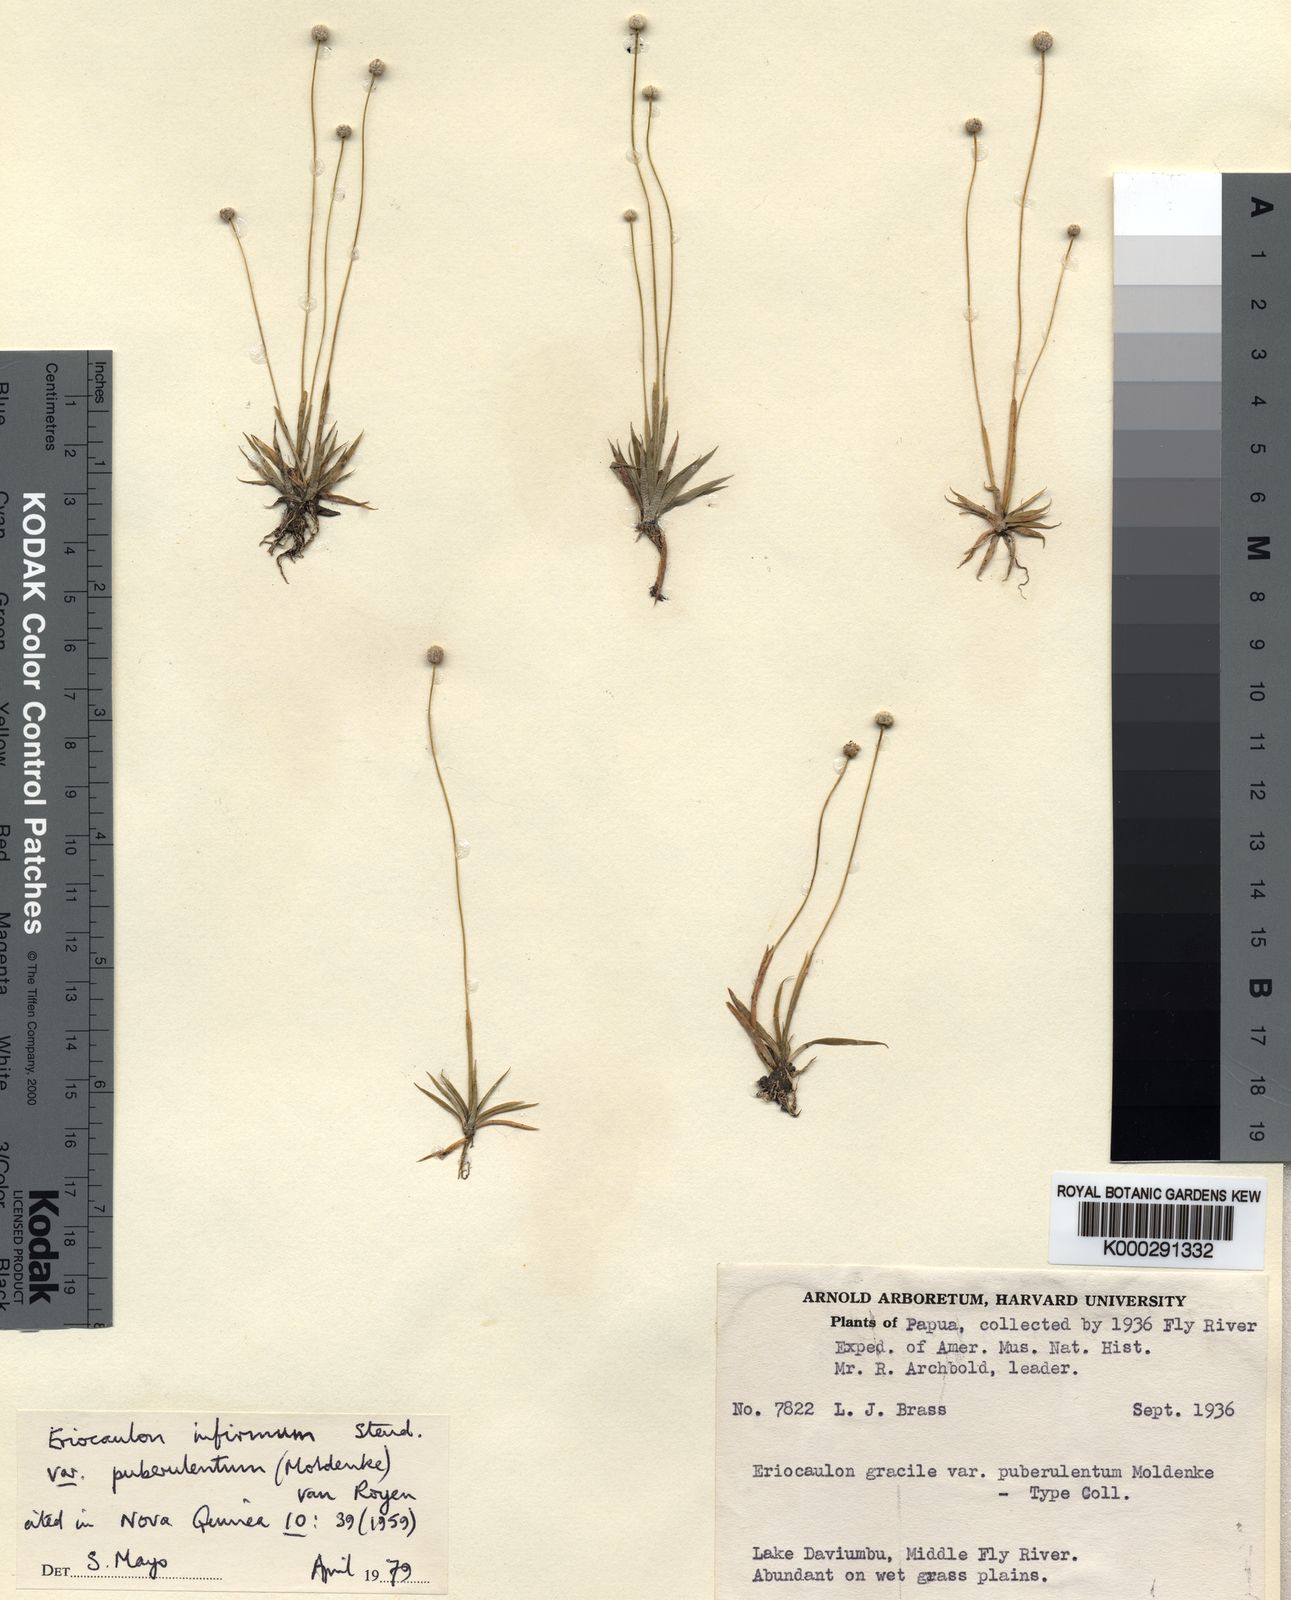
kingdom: Plantae
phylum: Tracheophyta
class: Liliopsida
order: Poales
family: Eriocaulaceae
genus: Eriocaulon
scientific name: Eriocaulon infirmum
